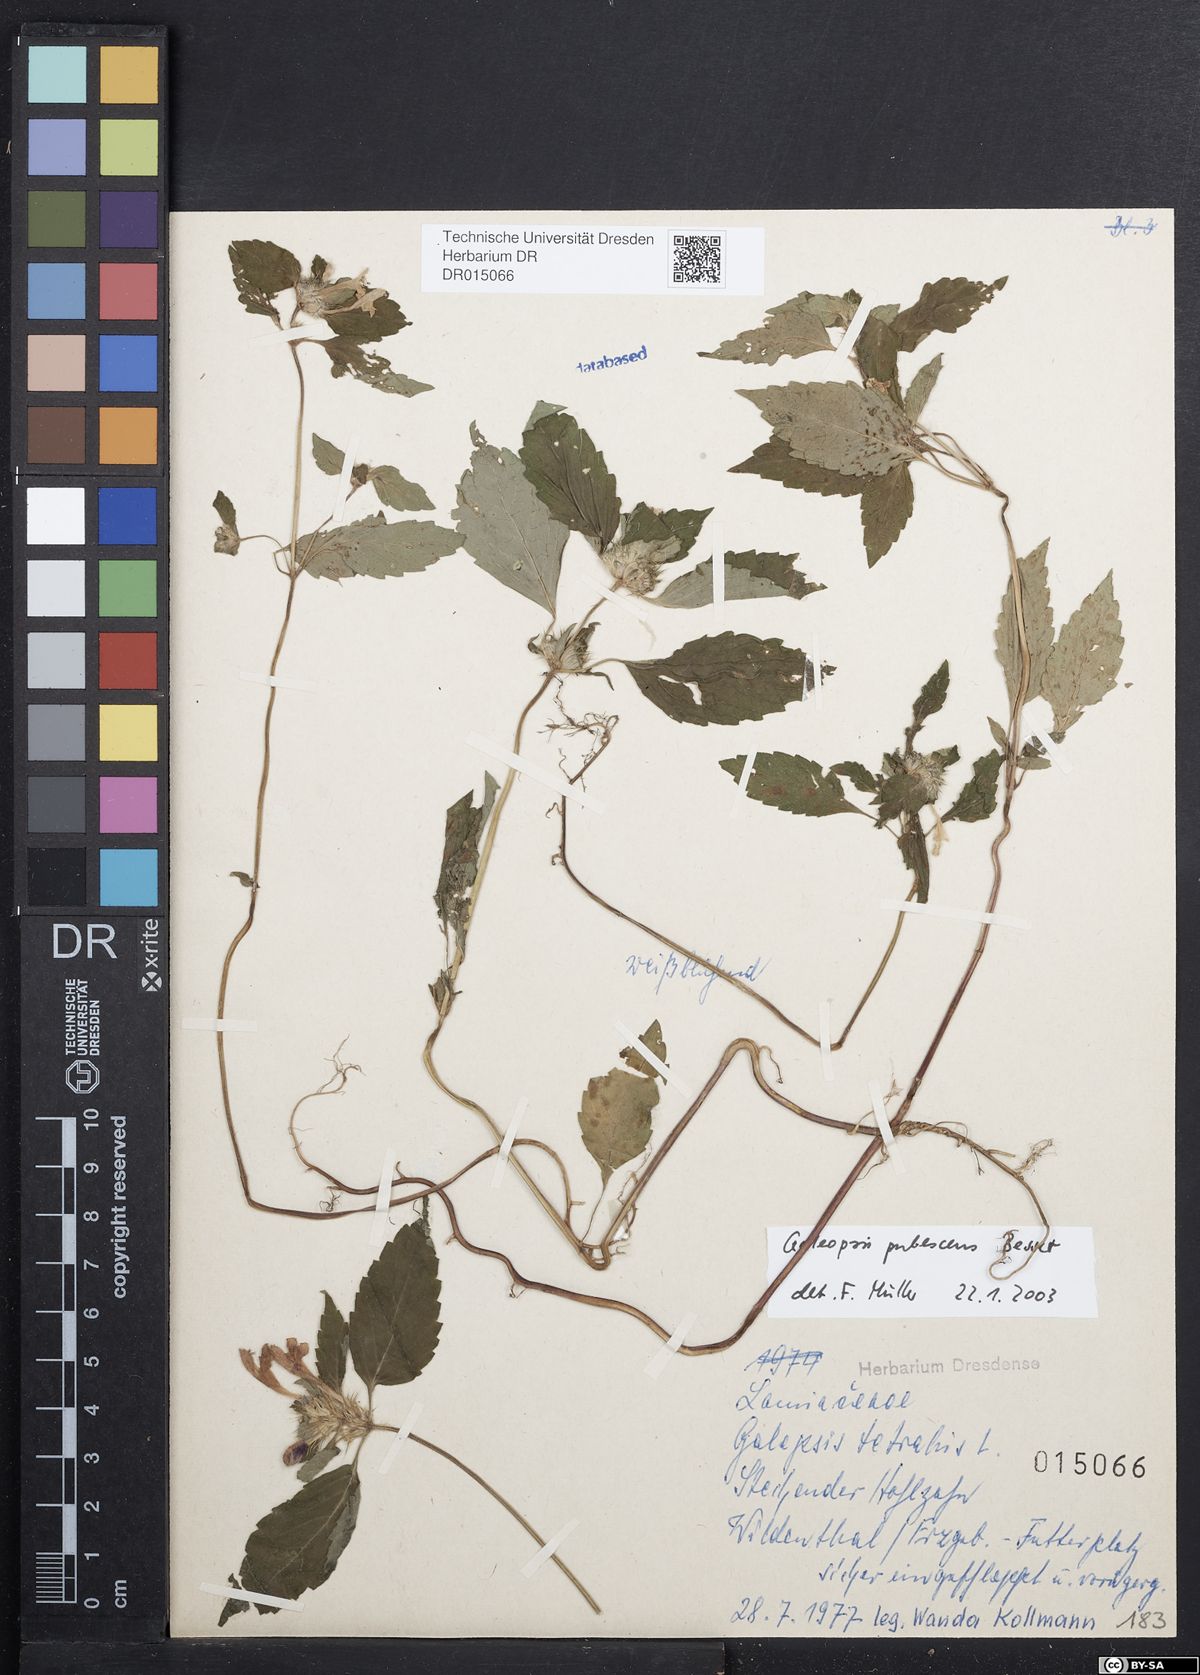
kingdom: Plantae
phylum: Tracheophyta
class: Magnoliopsida
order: Lamiales
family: Lamiaceae
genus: Galeopsis
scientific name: Galeopsis pubescens
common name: Downy hemp-nettle
